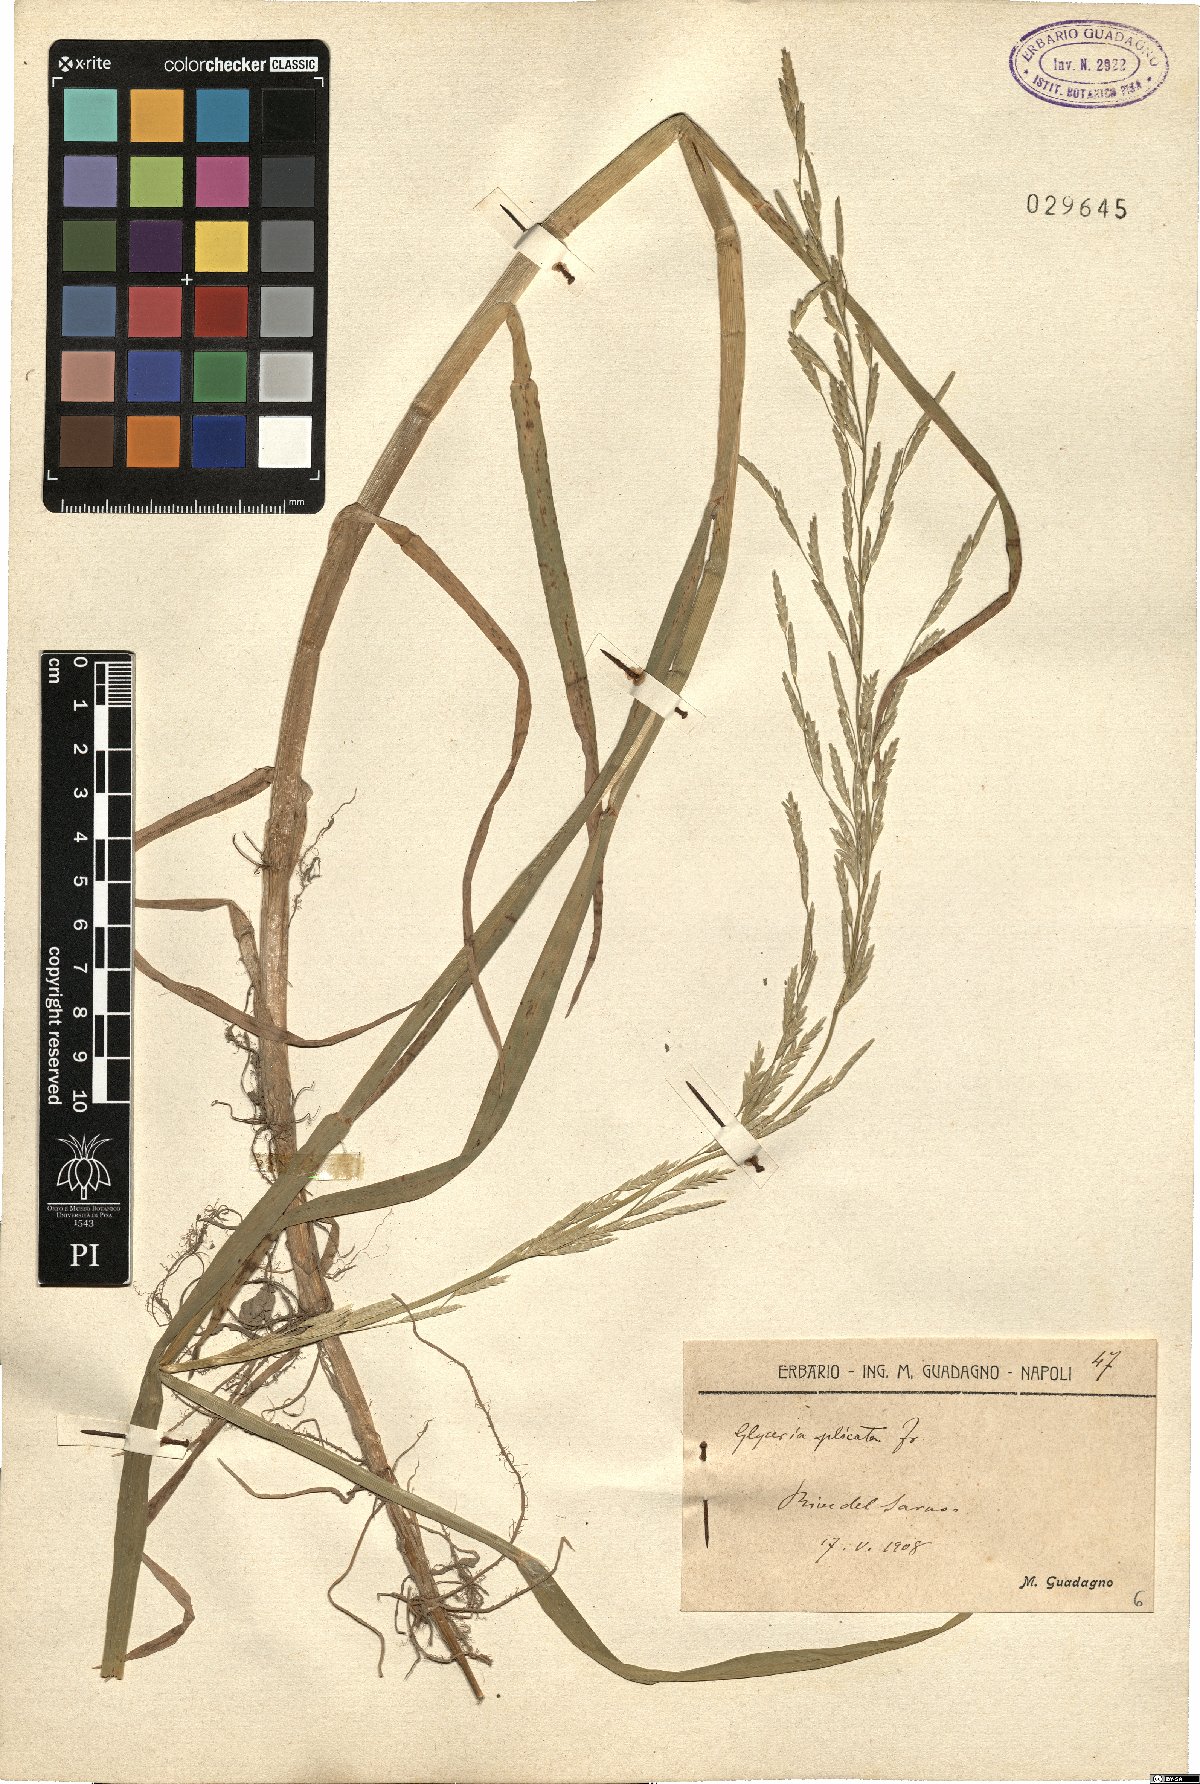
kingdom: Plantae
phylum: Tracheophyta
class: Liliopsida
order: Poales
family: Poaceae
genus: Glyceria
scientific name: Glyceria notata
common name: Plicate sweet-grass
